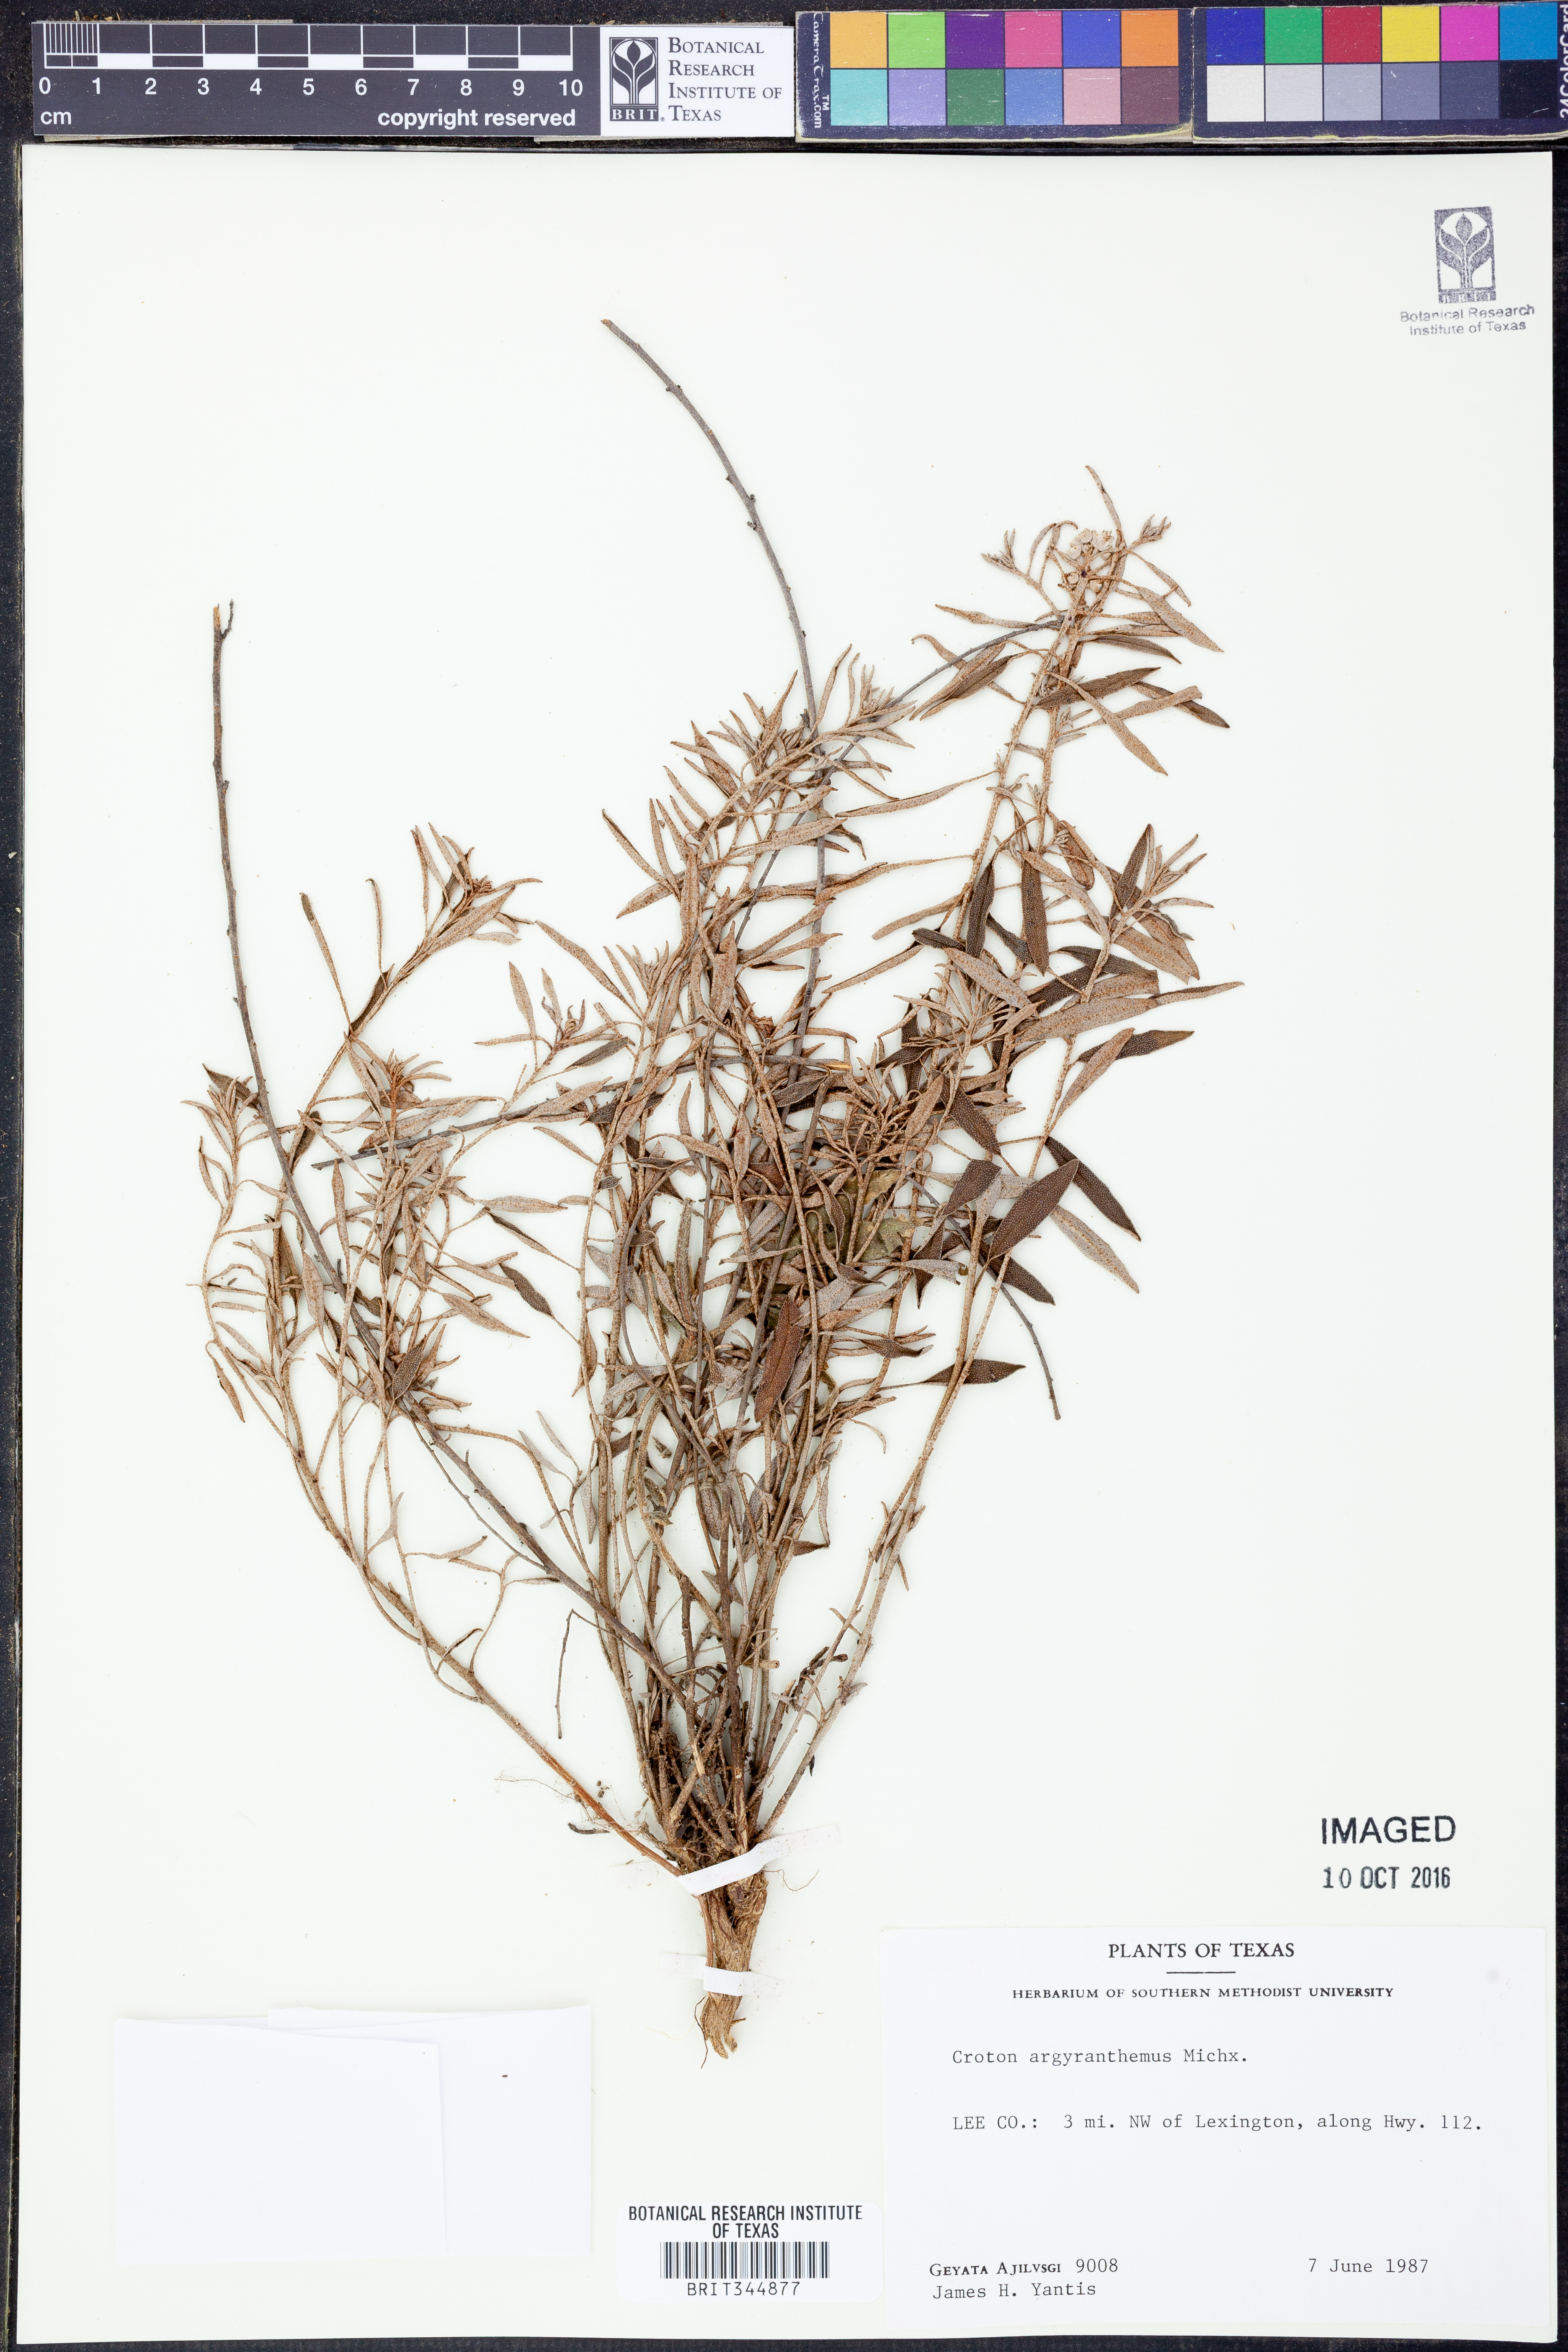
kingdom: Plantae
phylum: Tracheophyta
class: Magnoliopsida
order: Malpighiales
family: Euphorbiaceae
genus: Croton
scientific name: Croton argyranthemus
